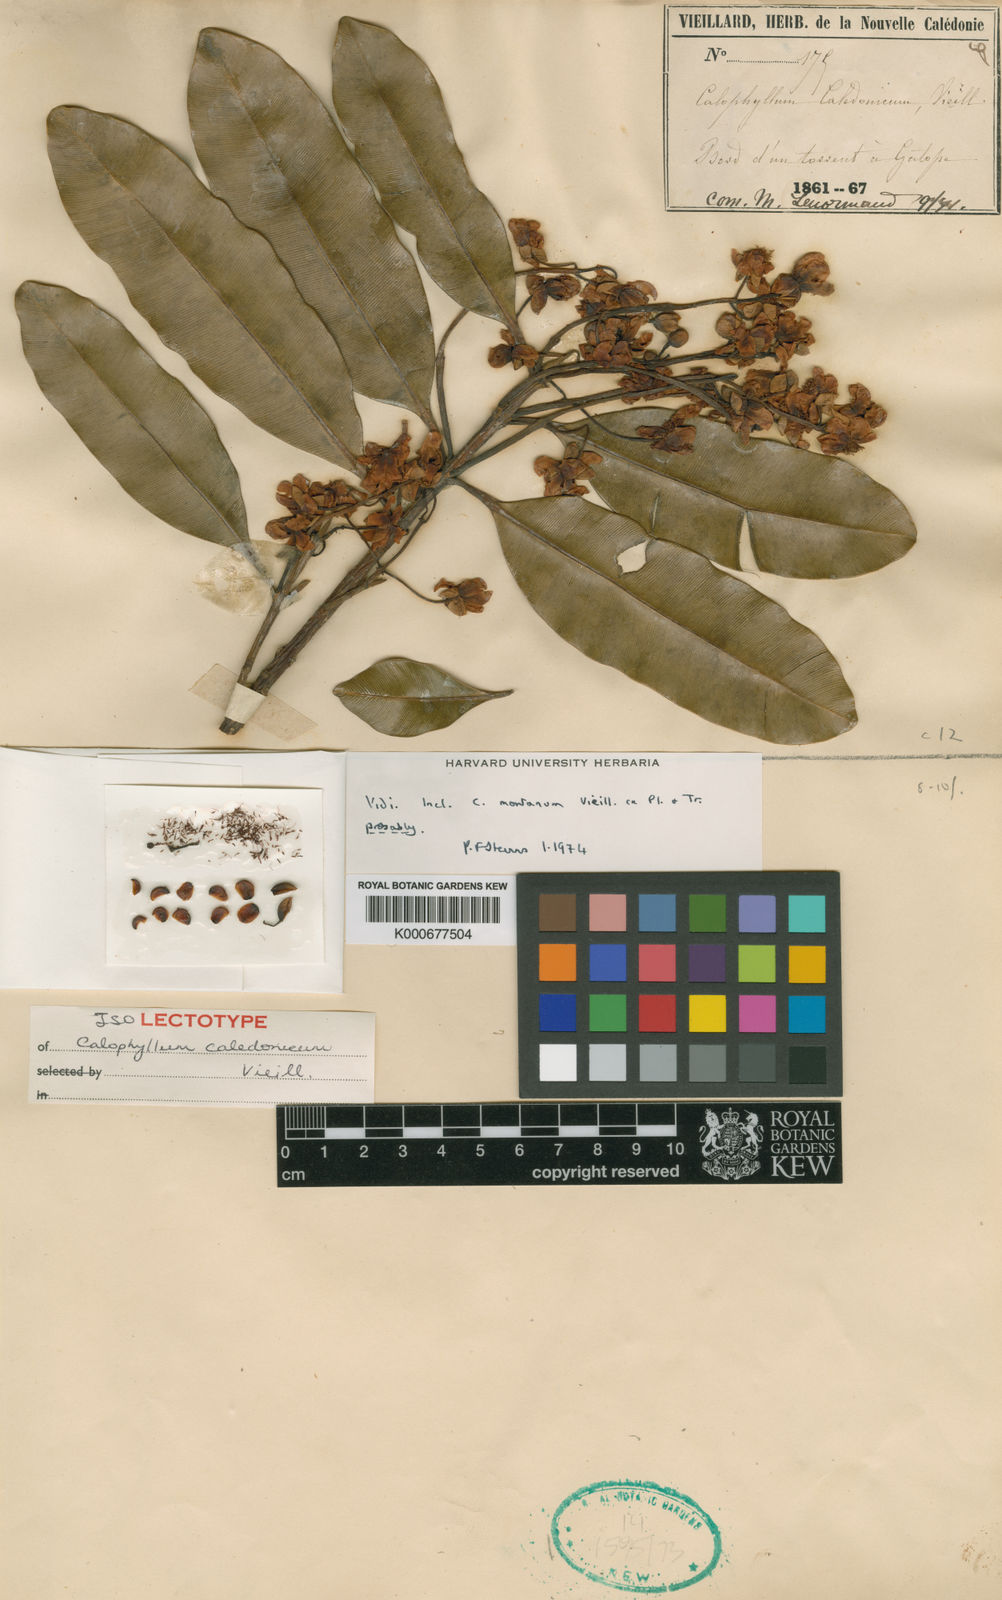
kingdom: Plantae
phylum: Tracheophyta
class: Magnoliopsida
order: Malpighiales
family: Calophyllaceae
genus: Calophyllum
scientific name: Calophyllum caledonicum
